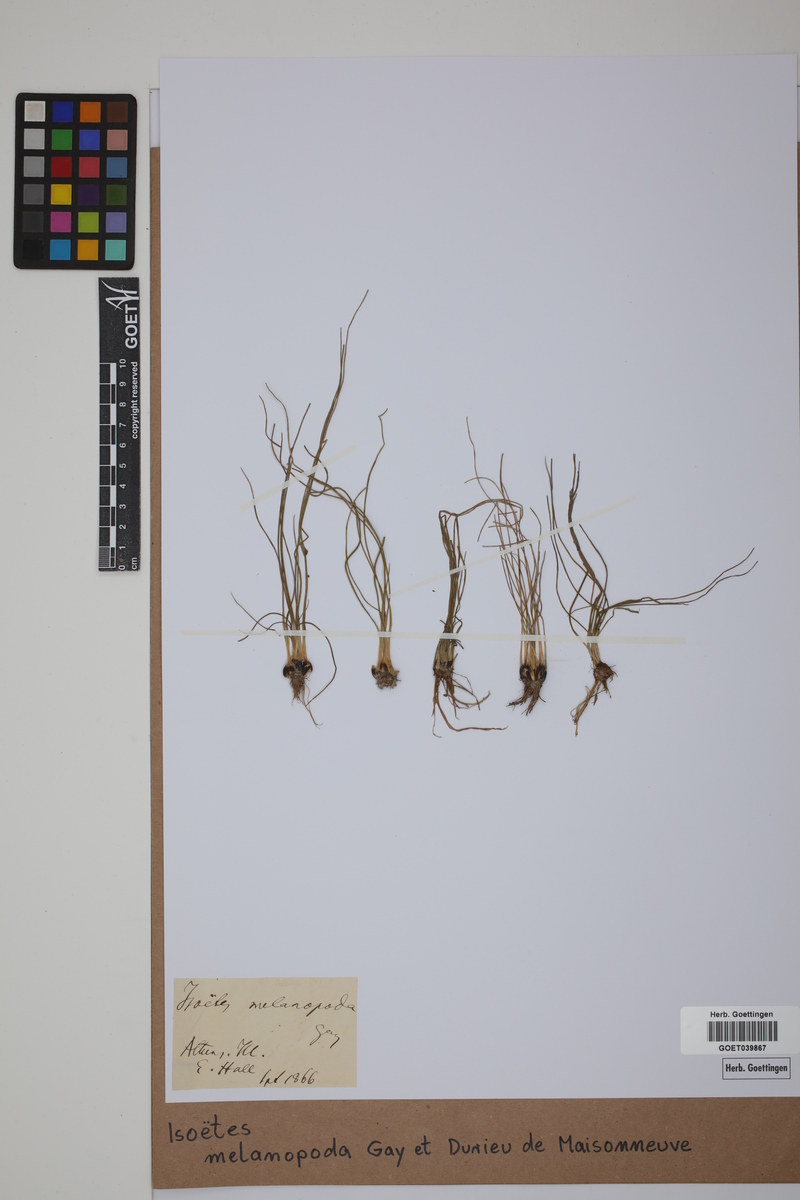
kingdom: Plantae
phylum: Tracheophyta
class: Lycopodiopsida
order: Isoetales
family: Isoetaceae
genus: Isoetes
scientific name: Isoetes melanopoda
